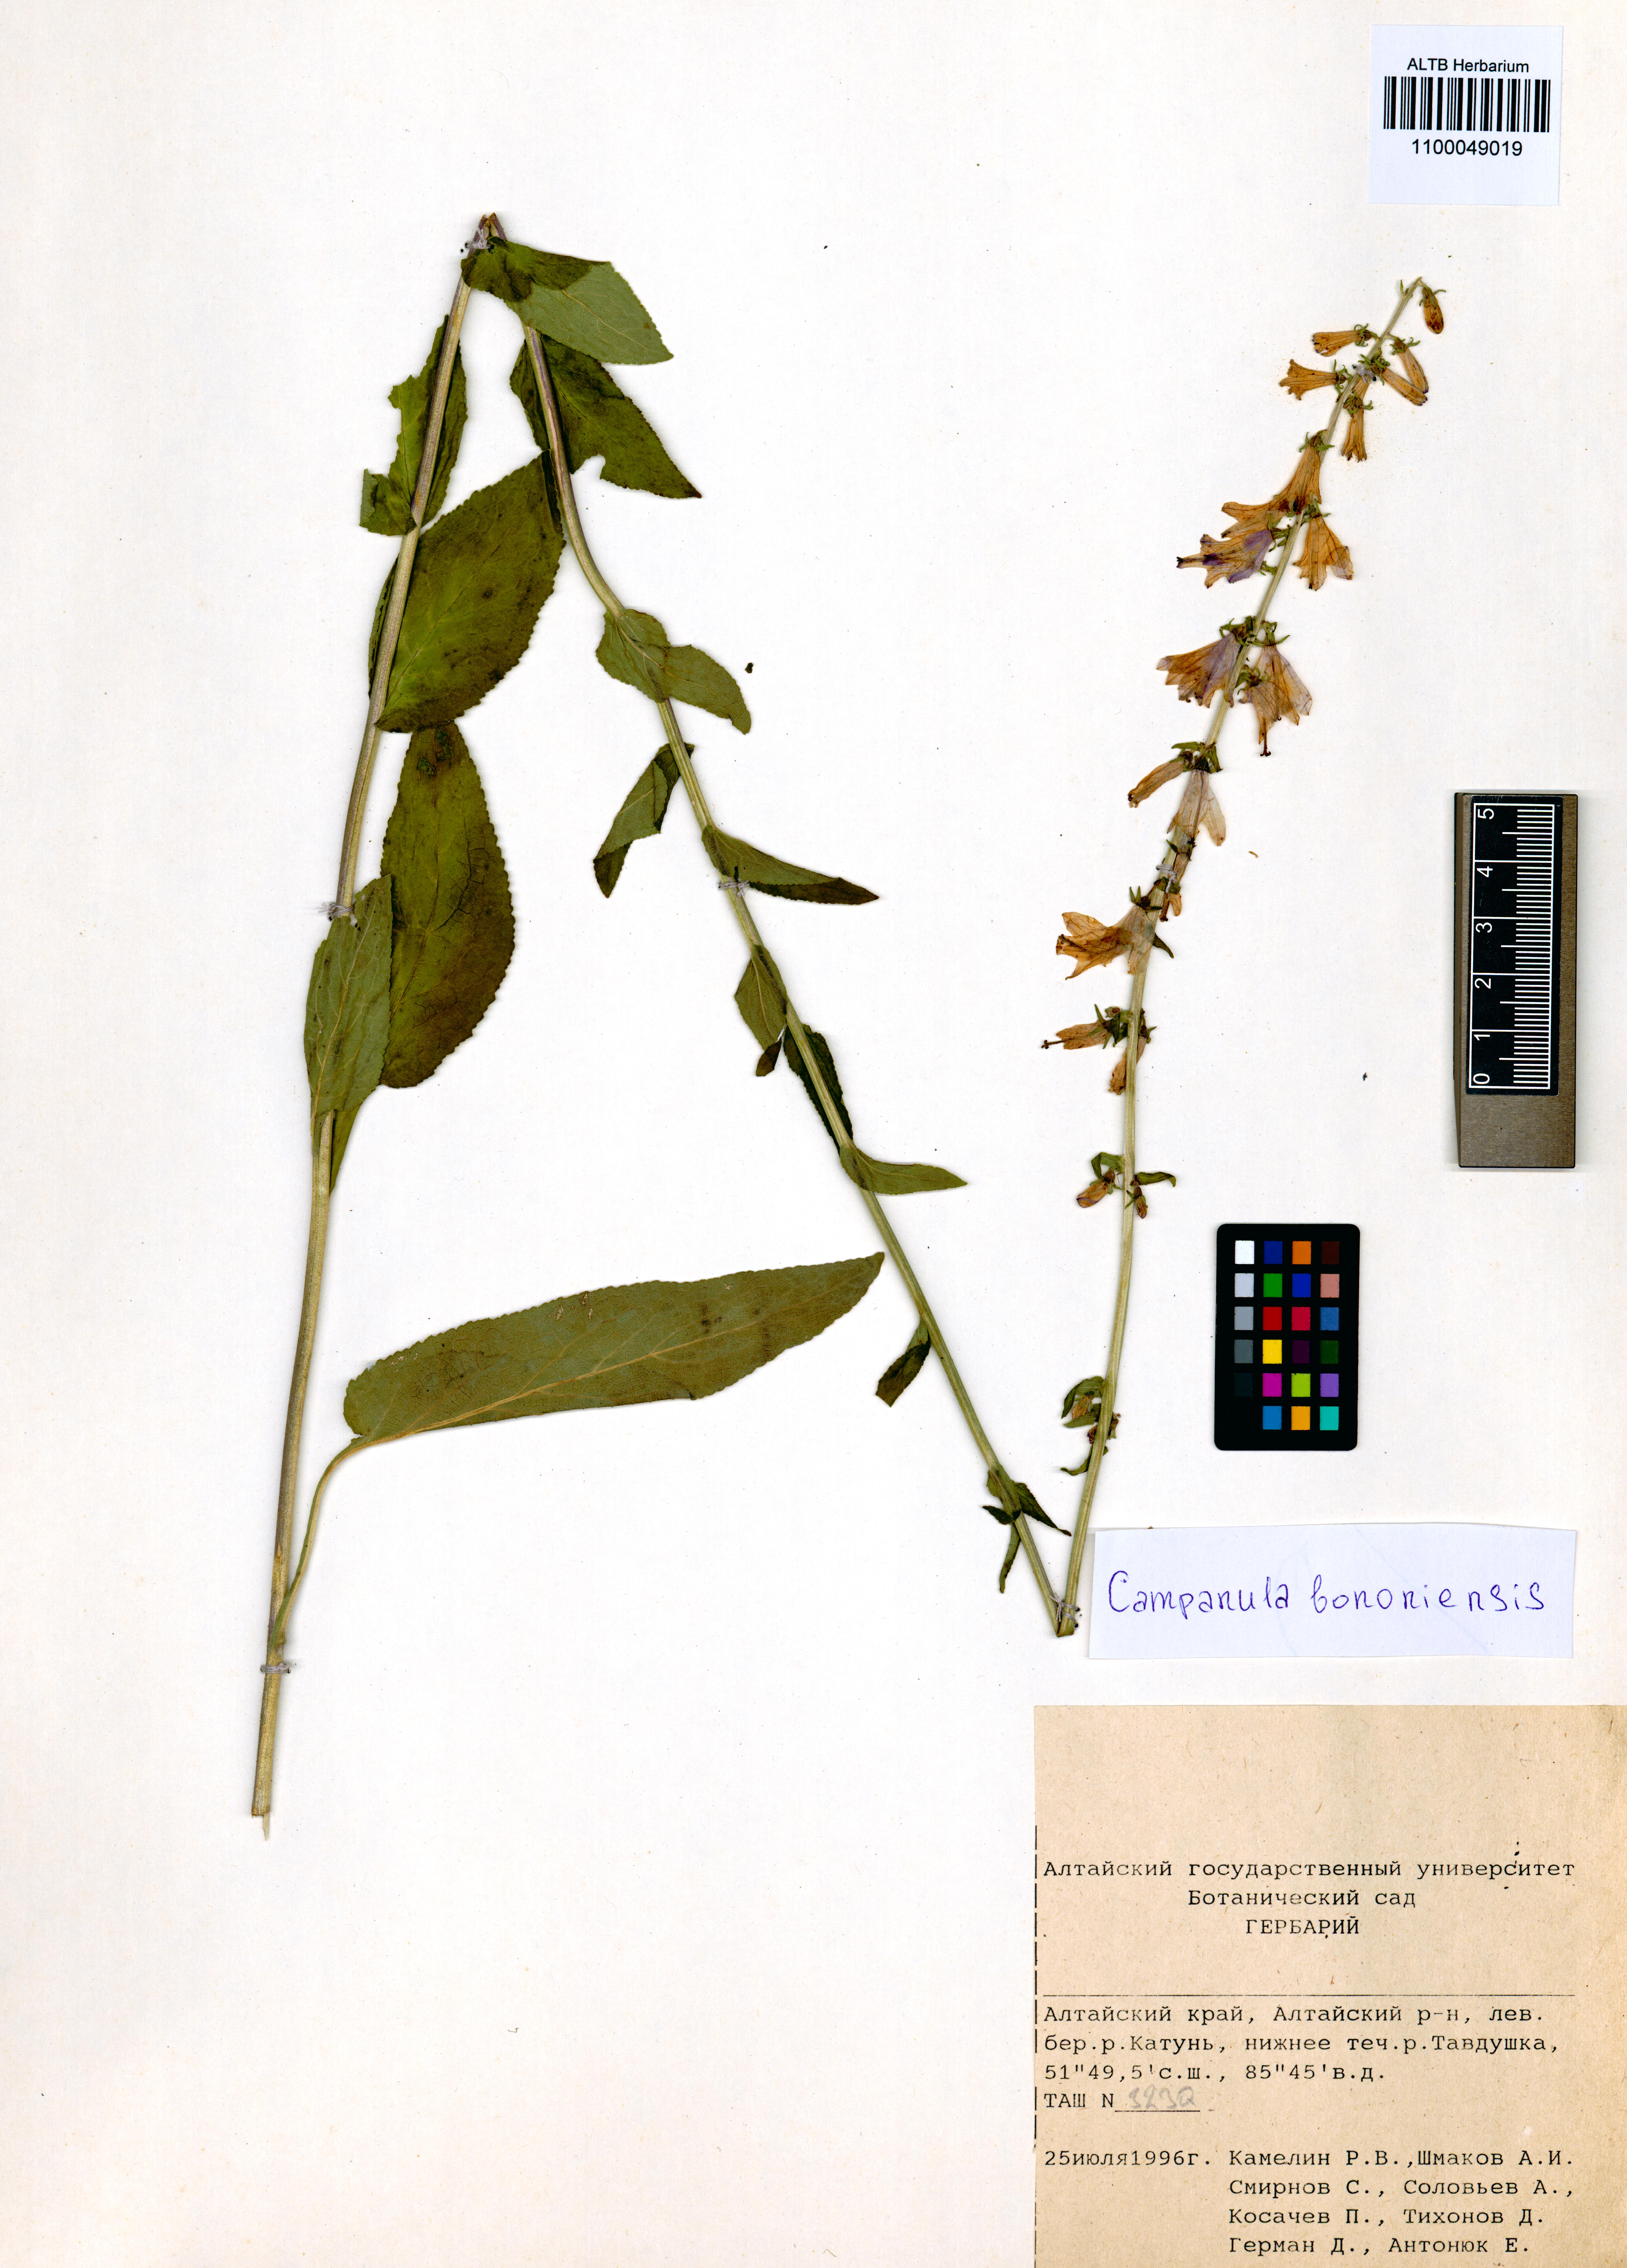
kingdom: Plantae
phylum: Tracheophyta
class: Magnoliopsida
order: Asterales
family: Campanulaceae
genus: Campanula
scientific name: Campanula bononiensis
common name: Pale bellflower
